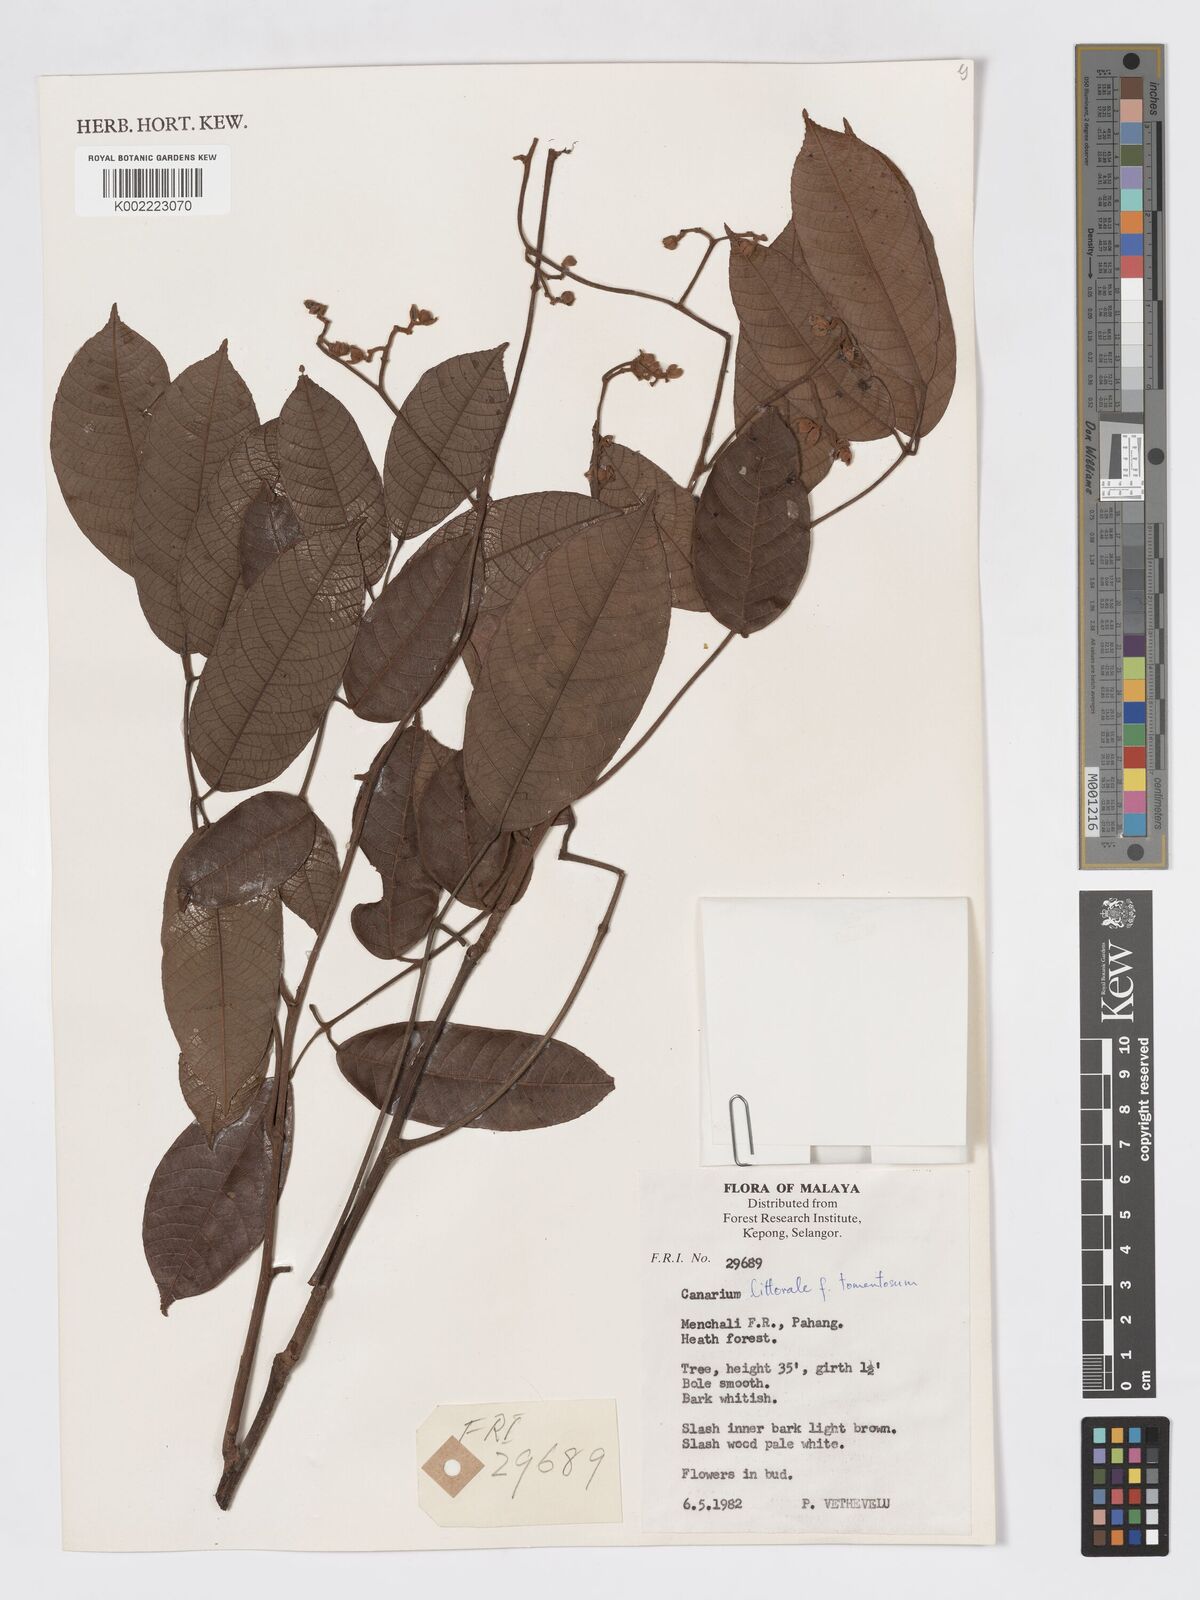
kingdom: Plantae
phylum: Tracheophyta
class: Magnoliopsida
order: Sapindales
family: Burseraceae
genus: Canarium
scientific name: Canarium littorale
